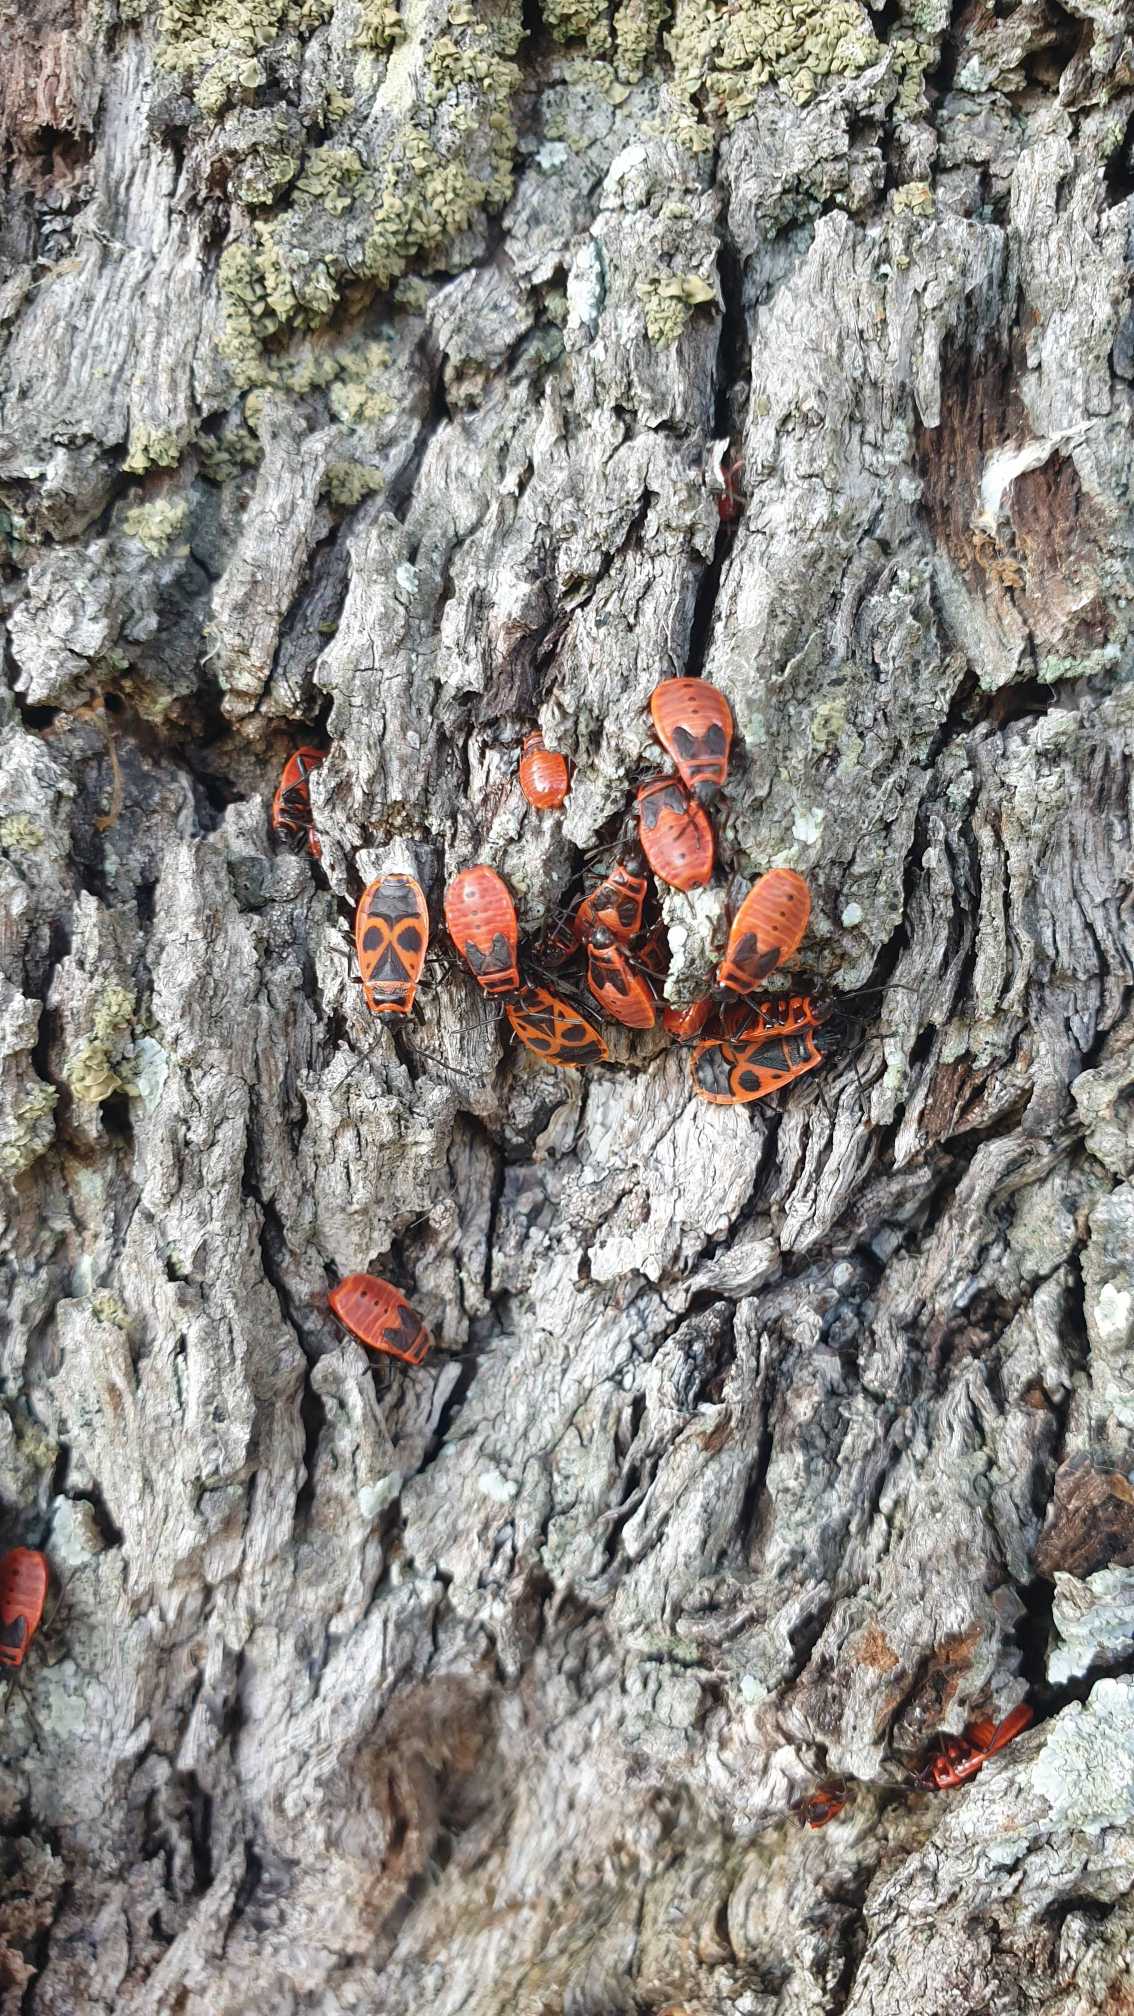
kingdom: Animalia
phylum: Arthropoda
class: Insecta
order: Hemiptera
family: Pyrrhocoridae
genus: Pyrrhocoris
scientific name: Pyrrhocoris apterus
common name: Ildtæge
